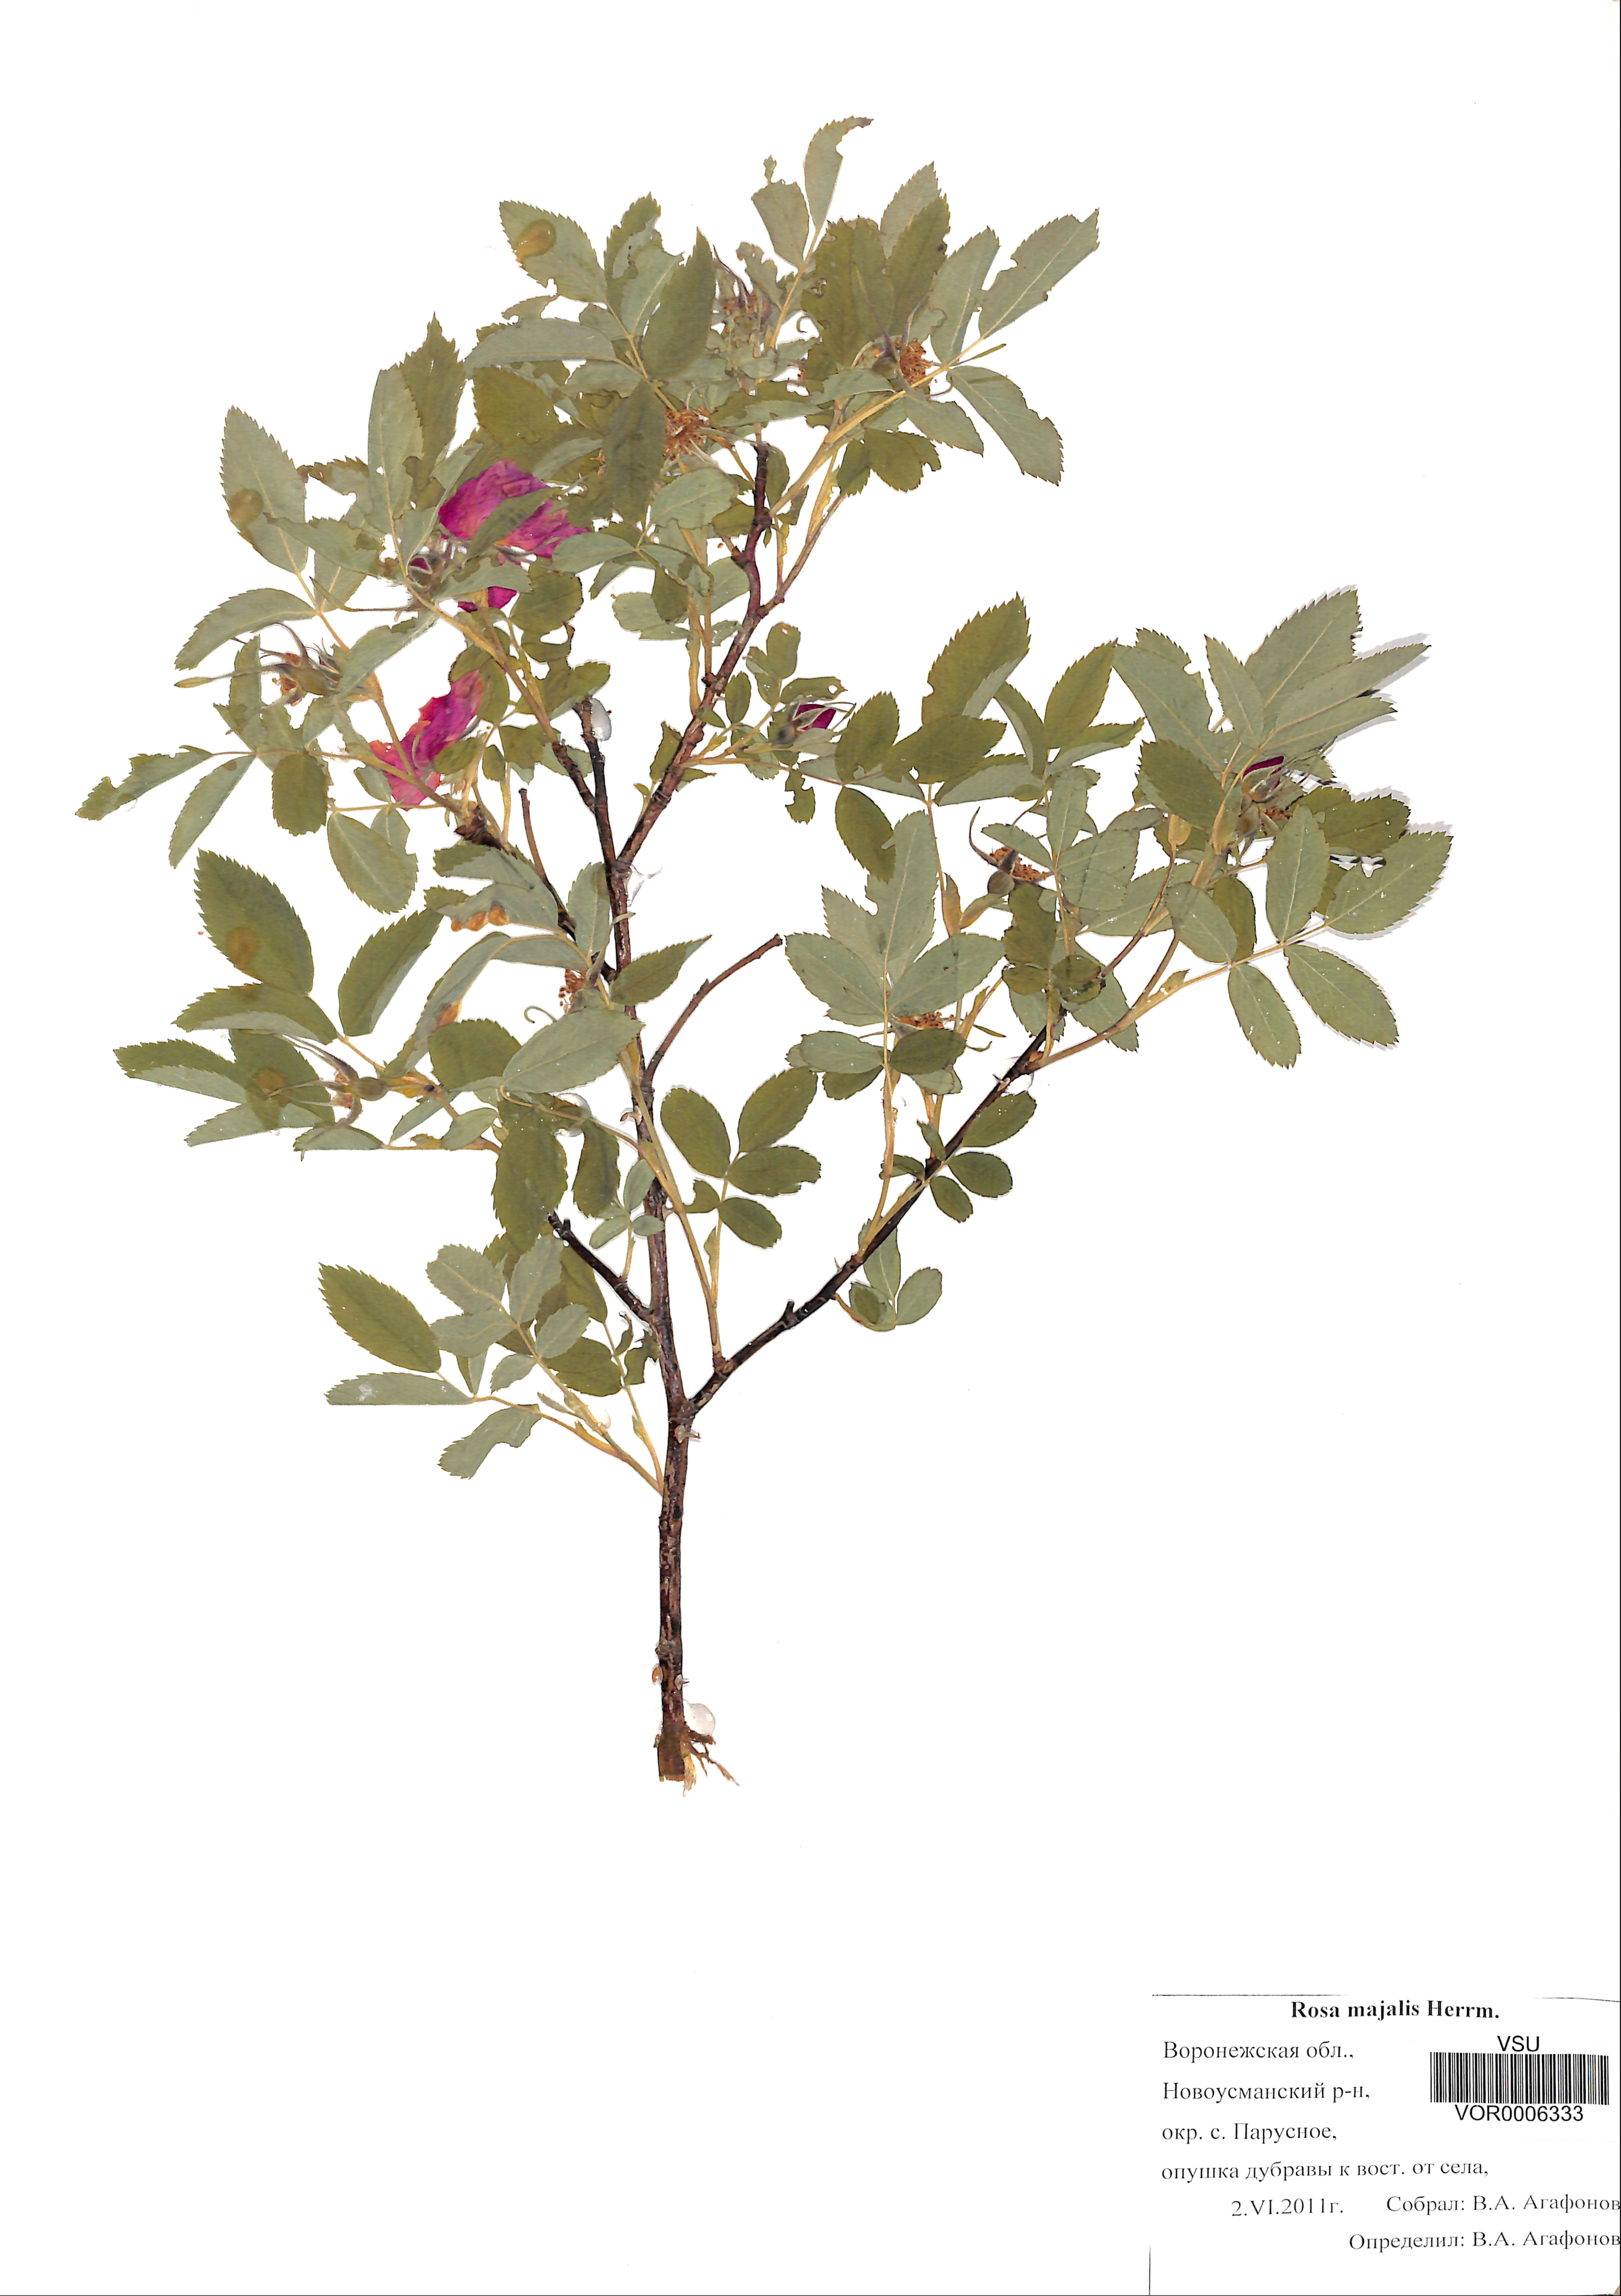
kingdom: Plantae
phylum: Tracheophyta
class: Magnoliopsida
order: Rosales
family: Rosaceae
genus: Rosa
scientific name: Rosa majalis
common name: Cinnamon rose
